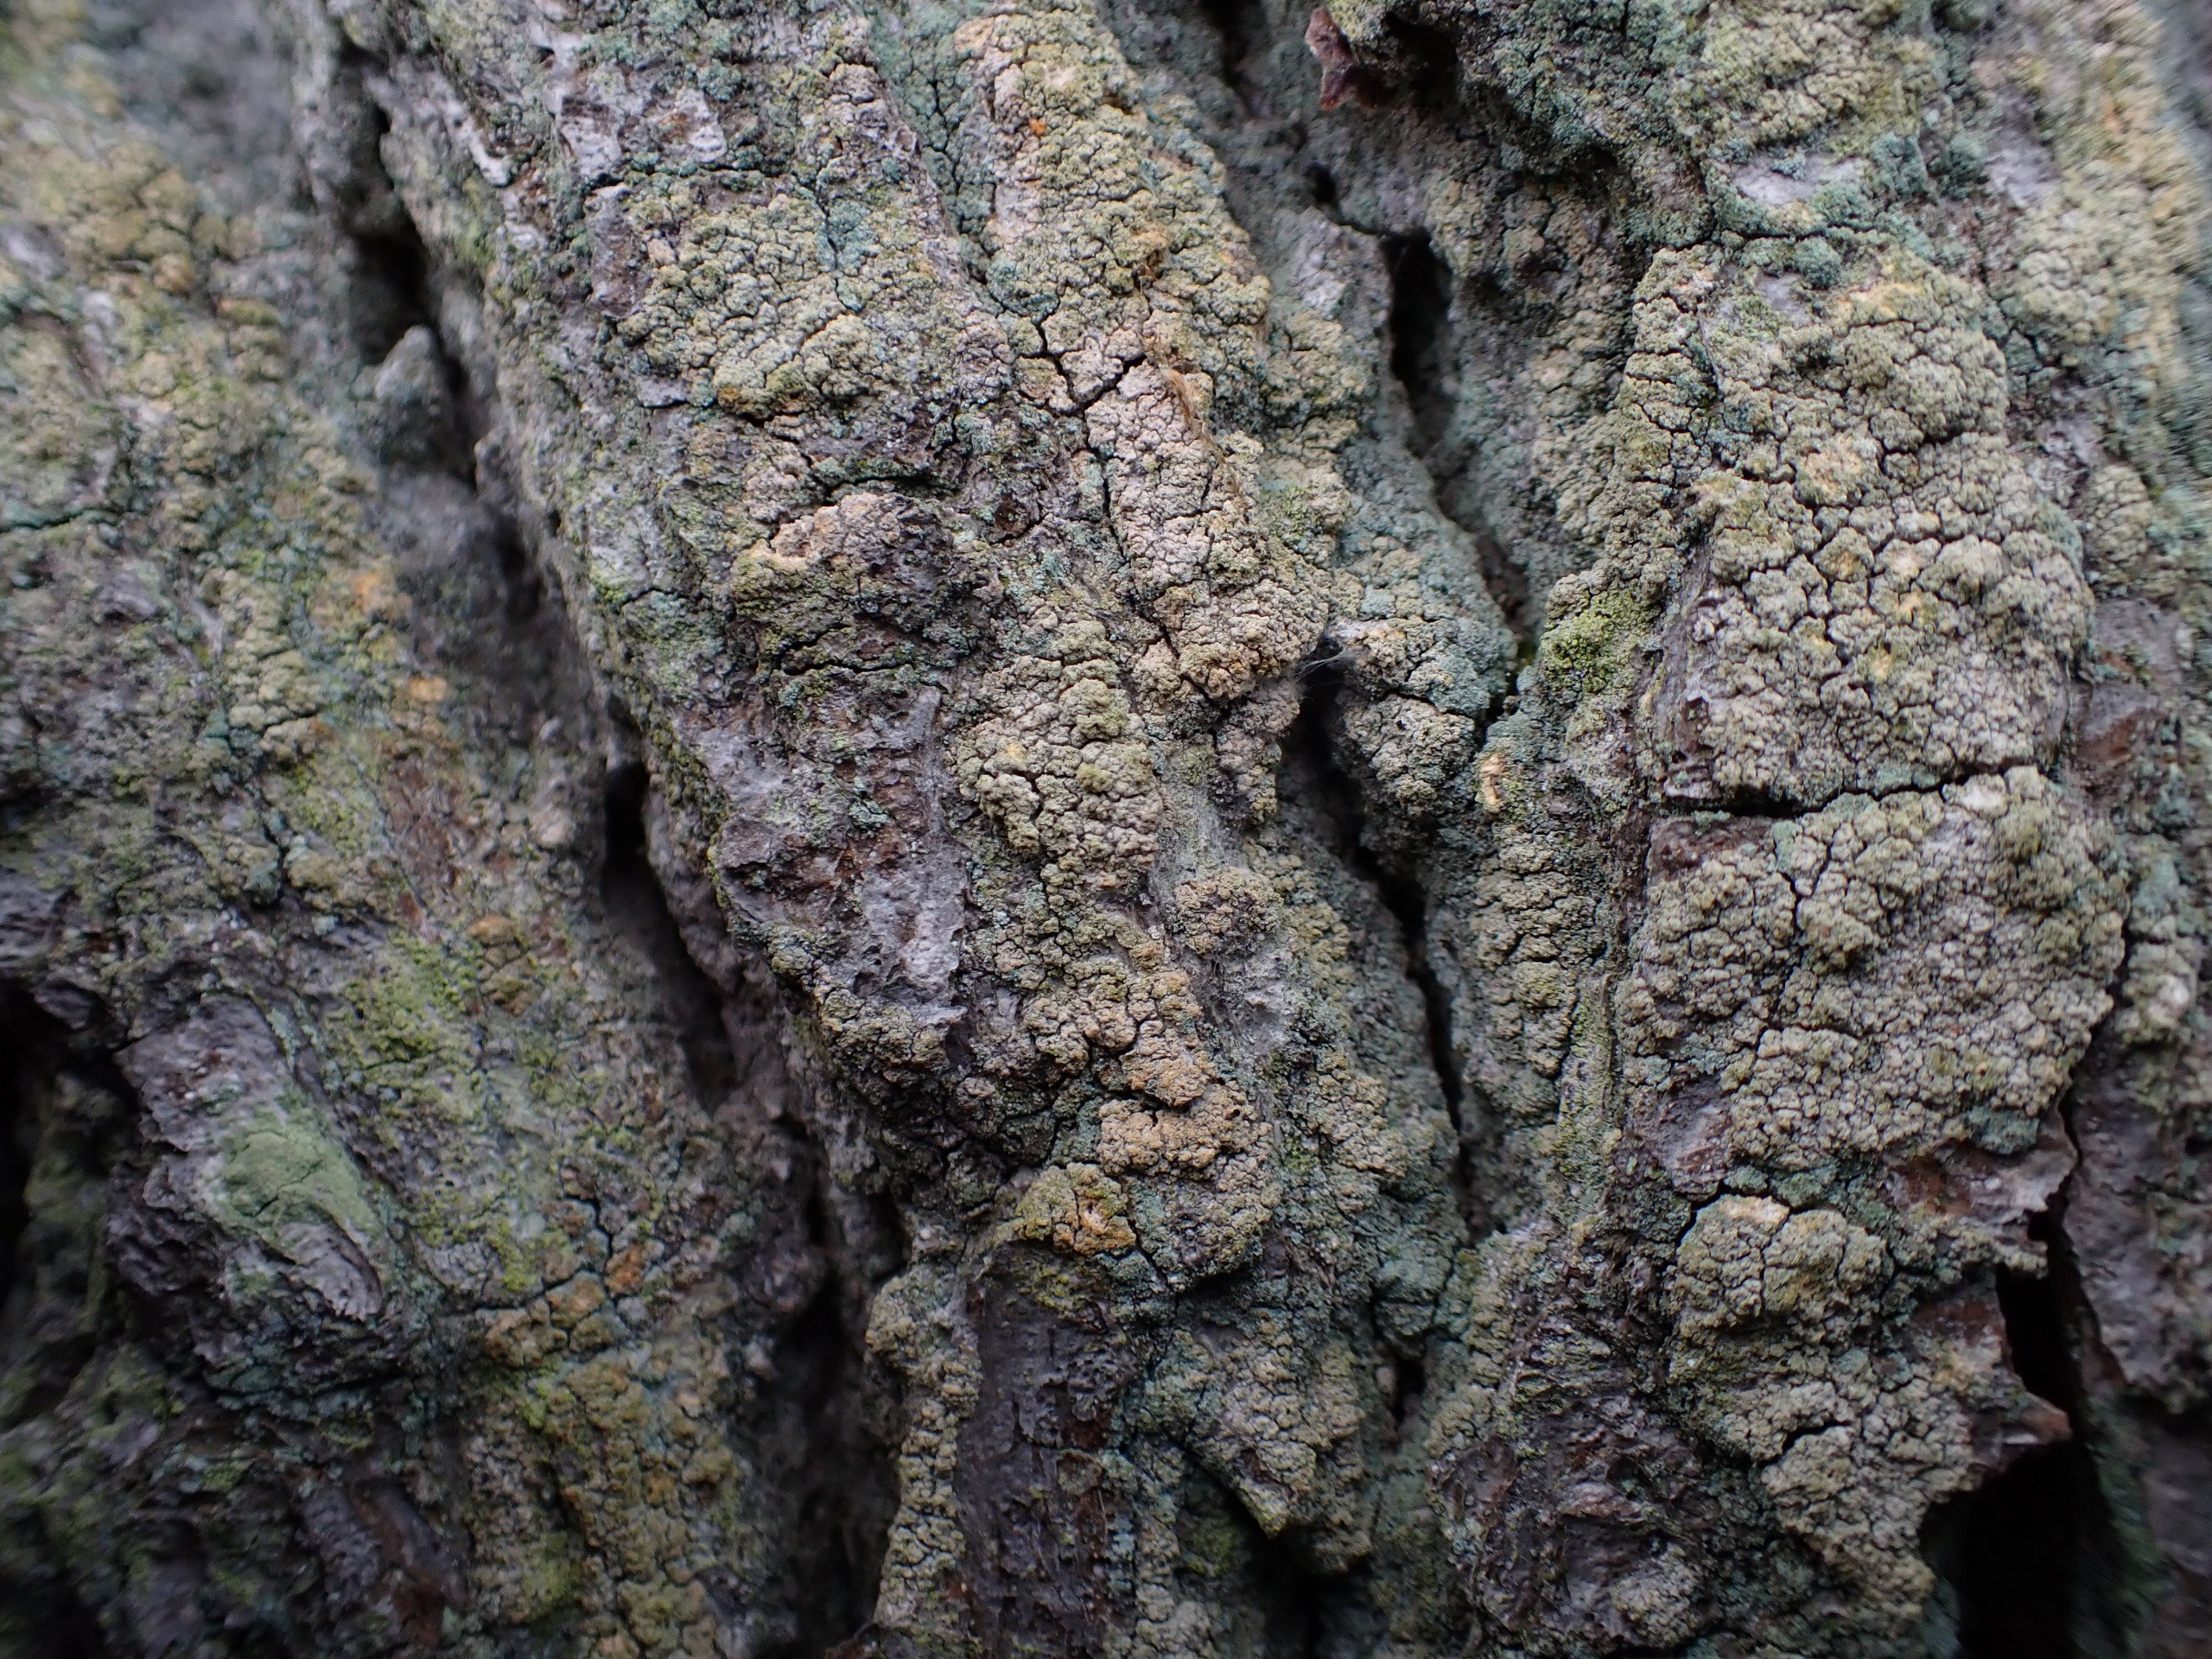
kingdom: Fungi
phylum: Ascomycota
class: Coniocybomycetes
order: Coniocybales
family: Coniocybaceae
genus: Chaenotheca
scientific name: Chaenotheca ferruginea
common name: Rustbrun knappenålslav
